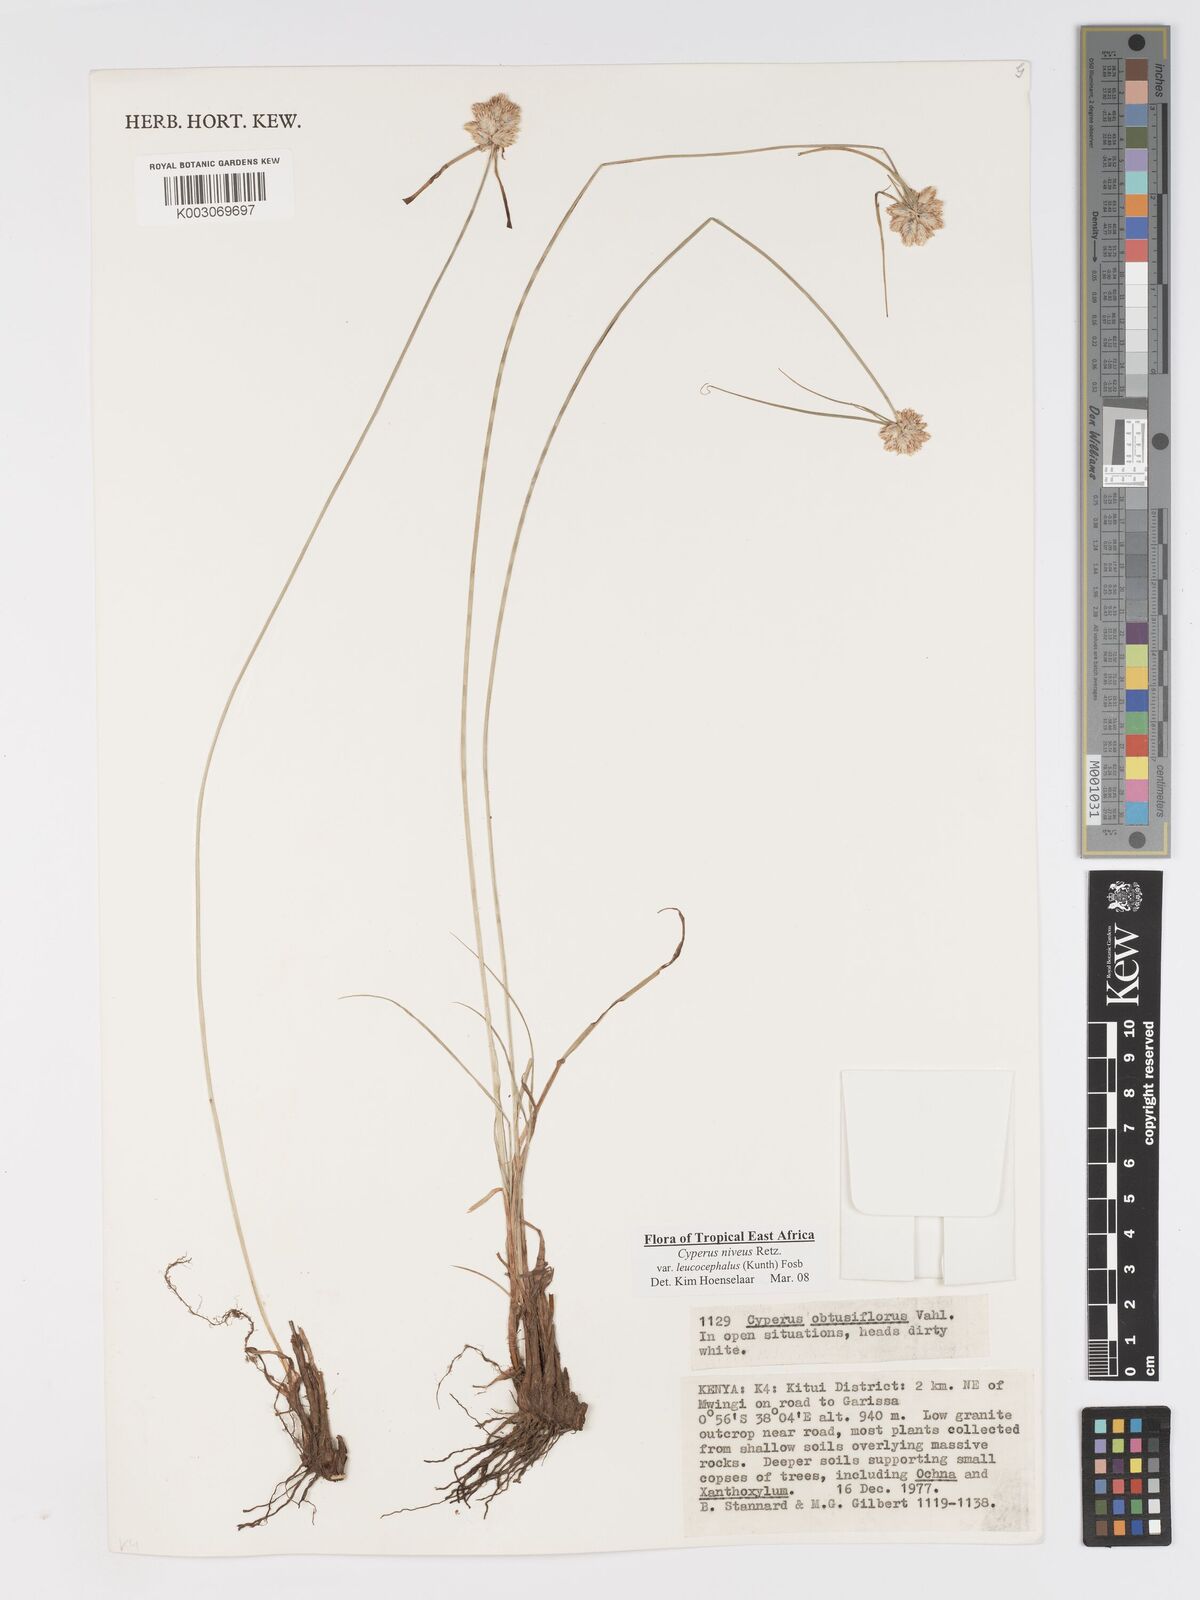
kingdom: Plantae
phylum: Tracheophyta
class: Liliopsida
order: Poales
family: Cyperaceae
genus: Cyperus
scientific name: Cyperus niveus
